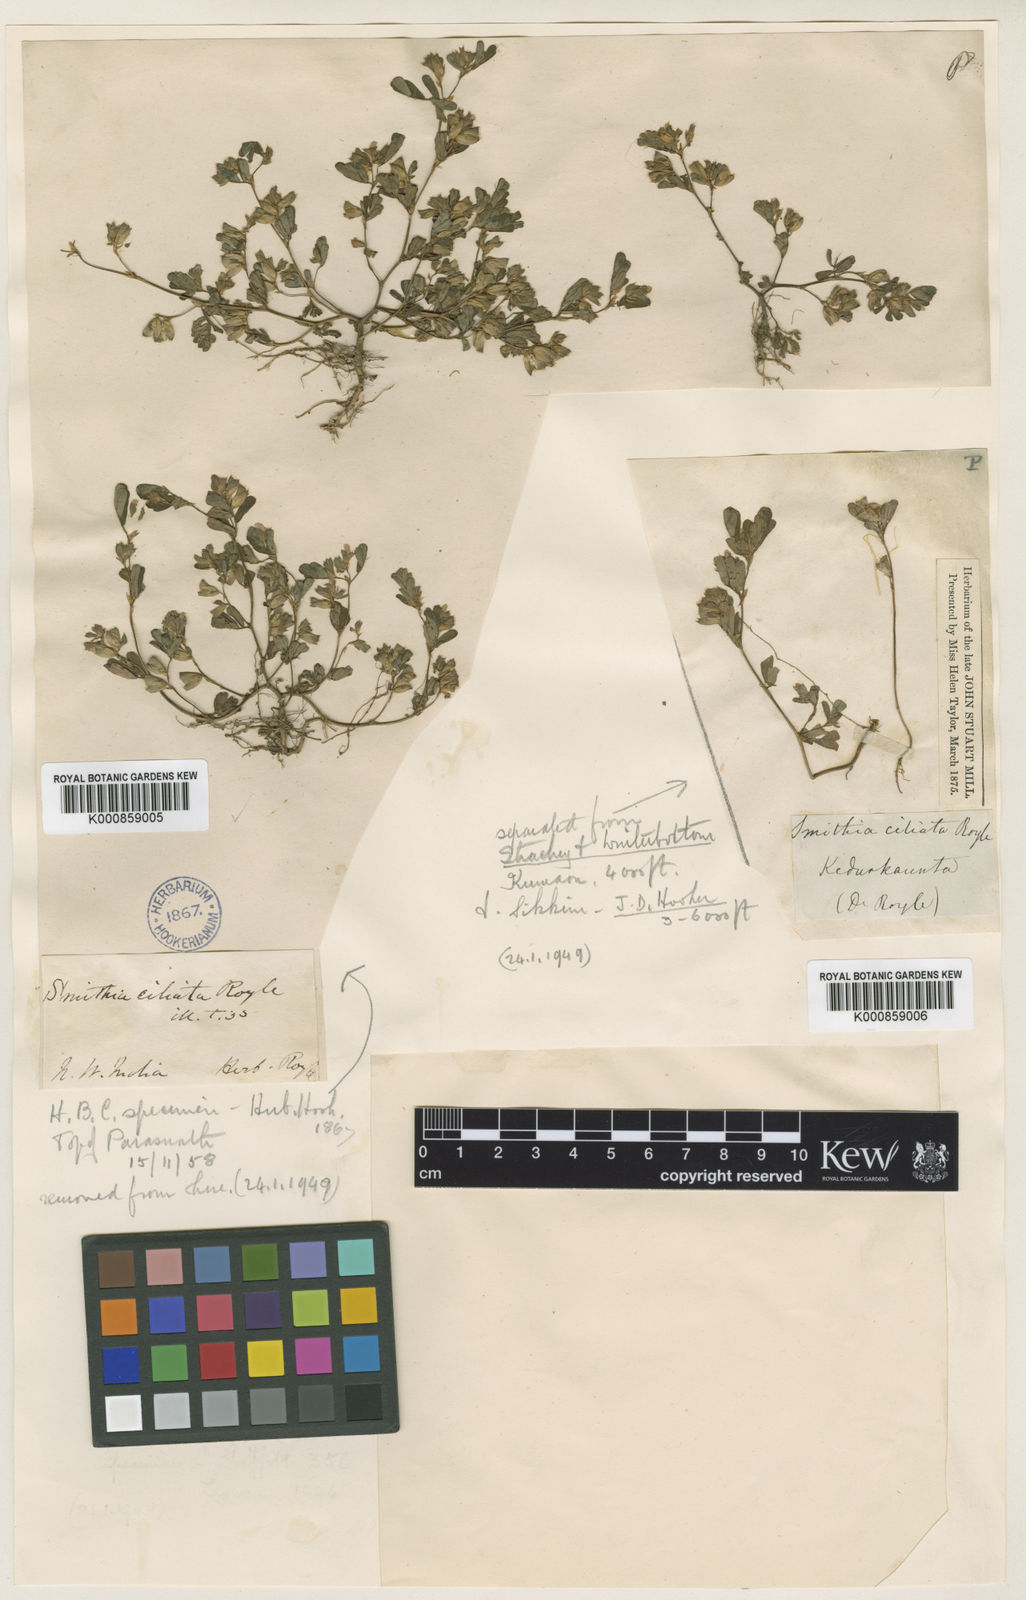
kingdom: Plantae
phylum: Tracheophyta
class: Magnoliopsida
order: Fabales
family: Fabaceae
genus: Smithia
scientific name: Smithia ciliata
